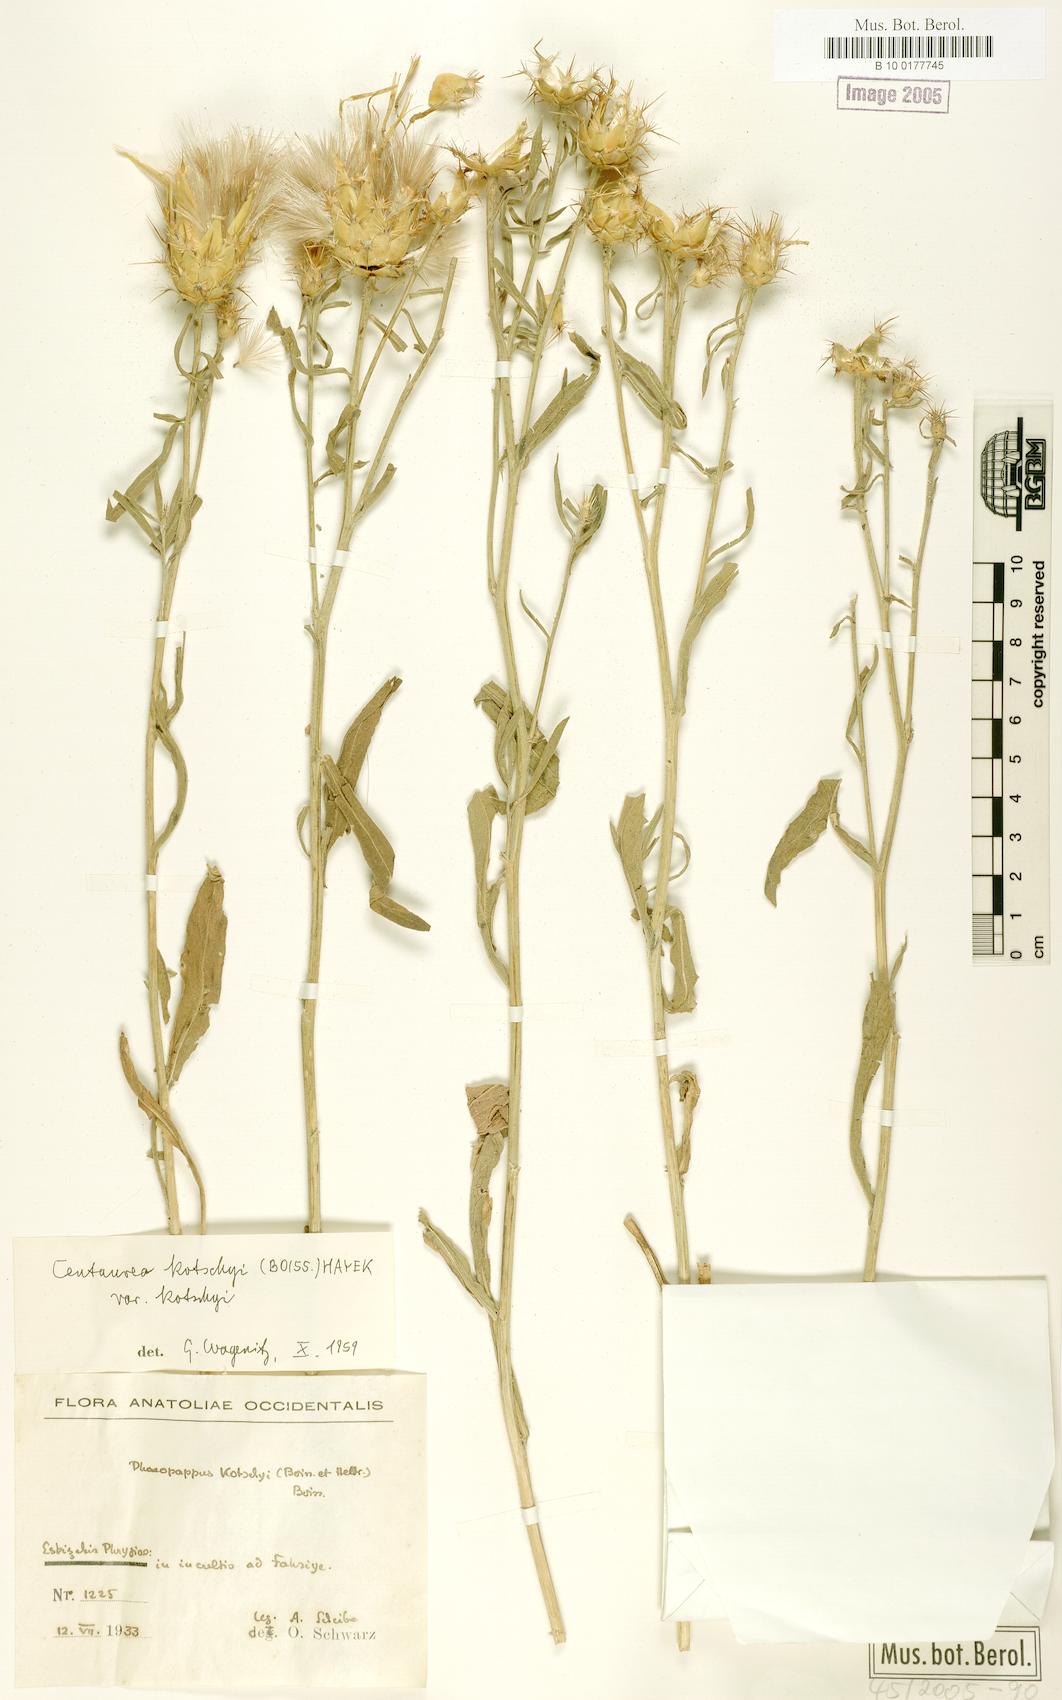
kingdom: Plantae
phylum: Tracheophyta
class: Magnoliopsida
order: Asterales
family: Asteraceae
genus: Centaurea
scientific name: Centaurea kotschyi
